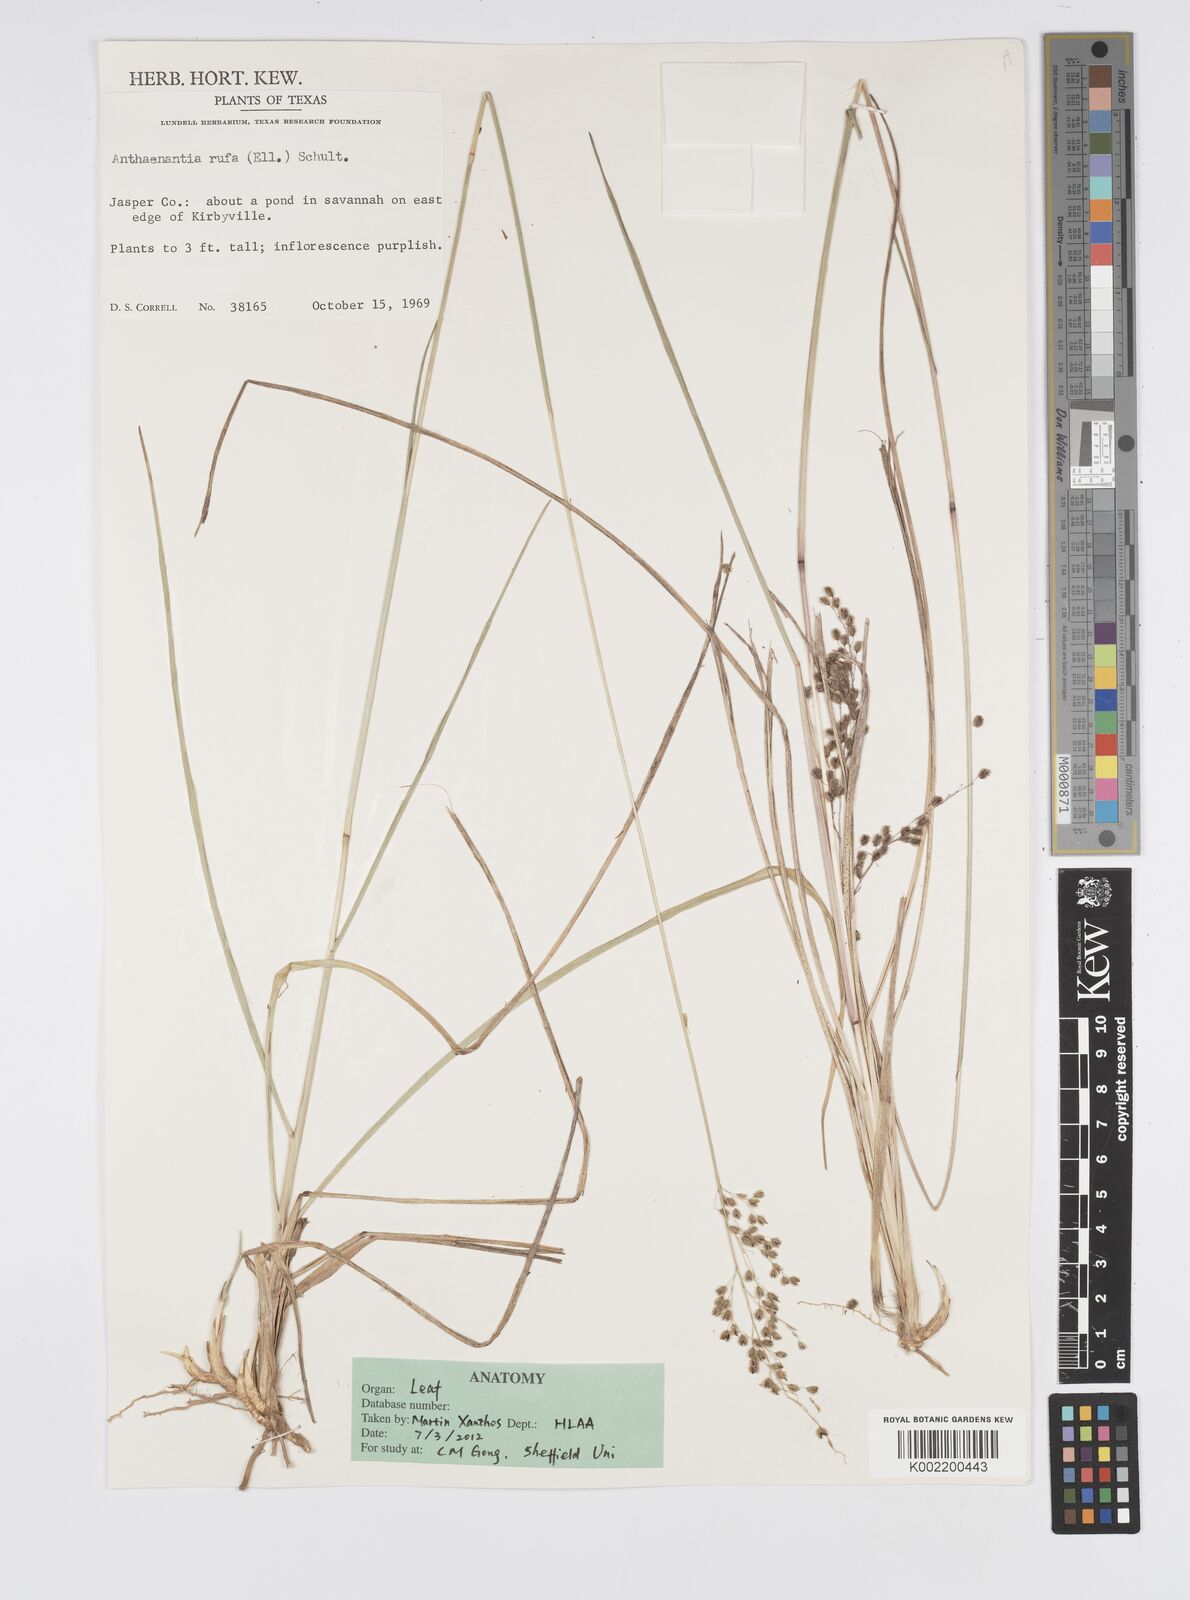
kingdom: Plantae
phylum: Tracheophyta
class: Liliopsida
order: Poales
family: Poaceae
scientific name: Poaceae
